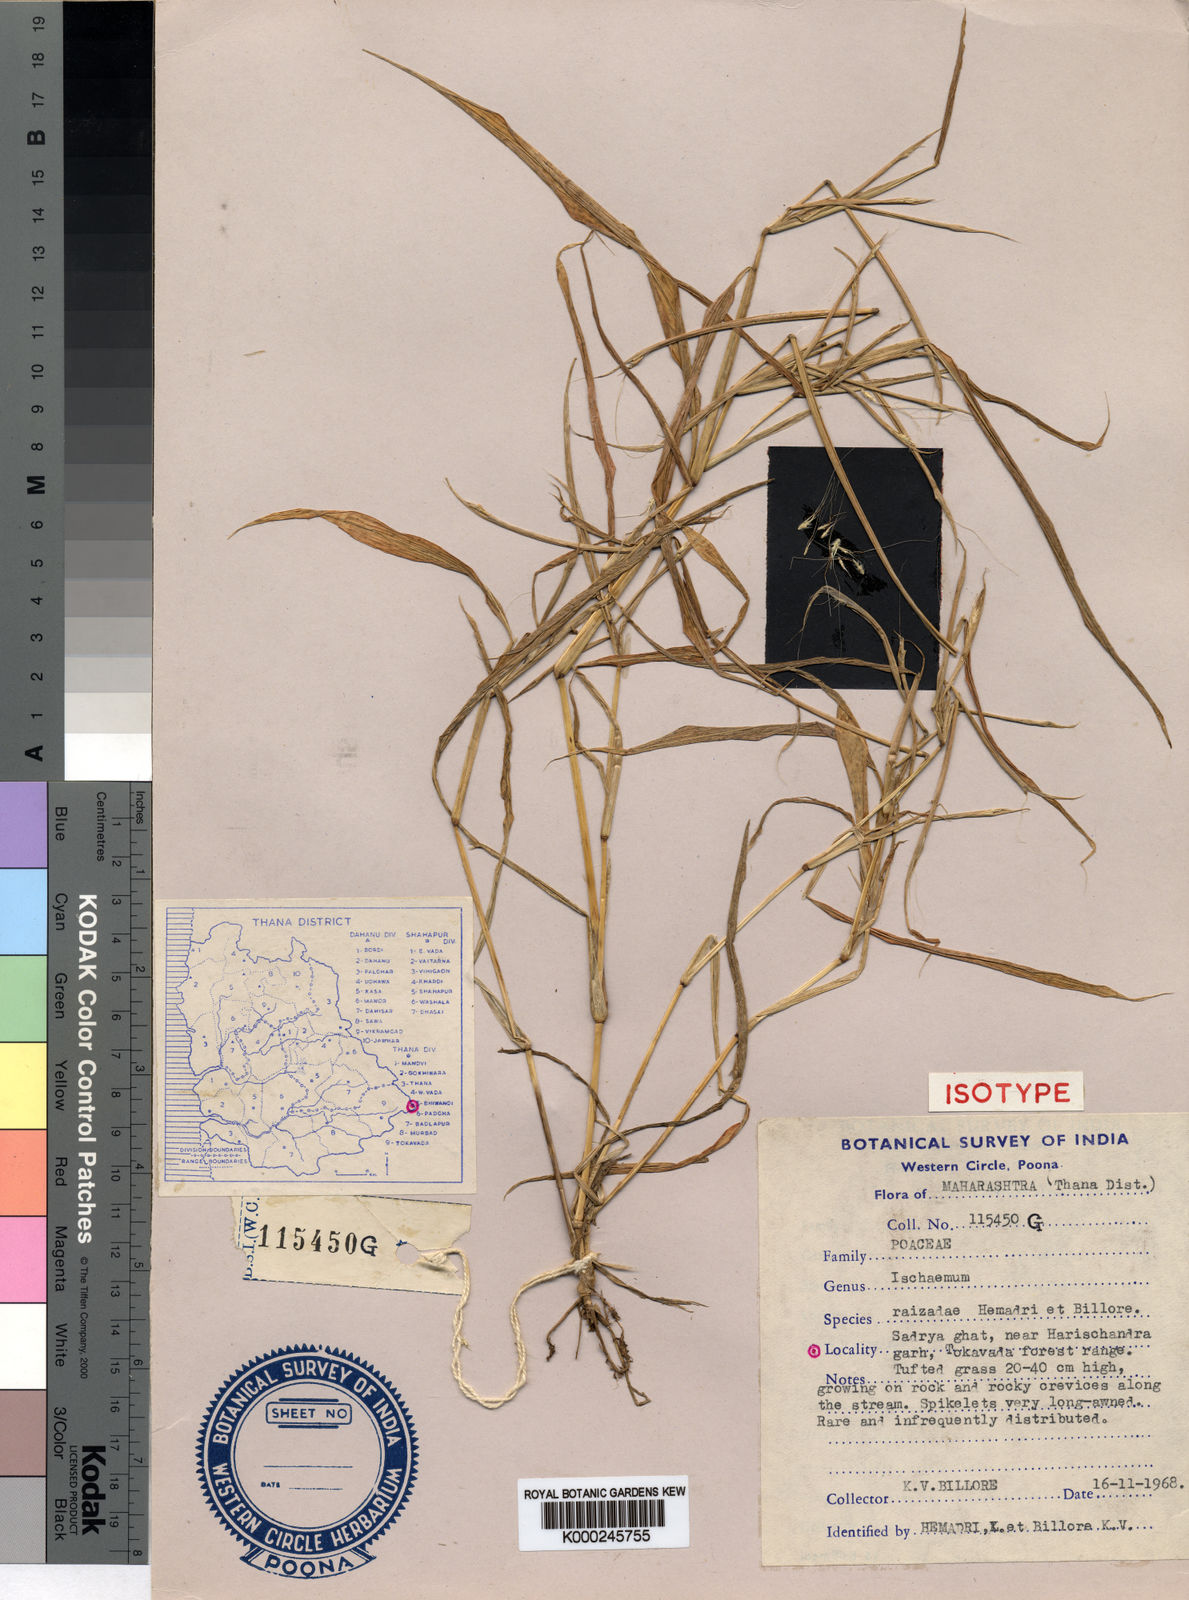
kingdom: Plantae
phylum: Tracheophyta
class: Liliopsida
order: Poales
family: Poaceae
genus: Ischaemum
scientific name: Ischaemum kingii
